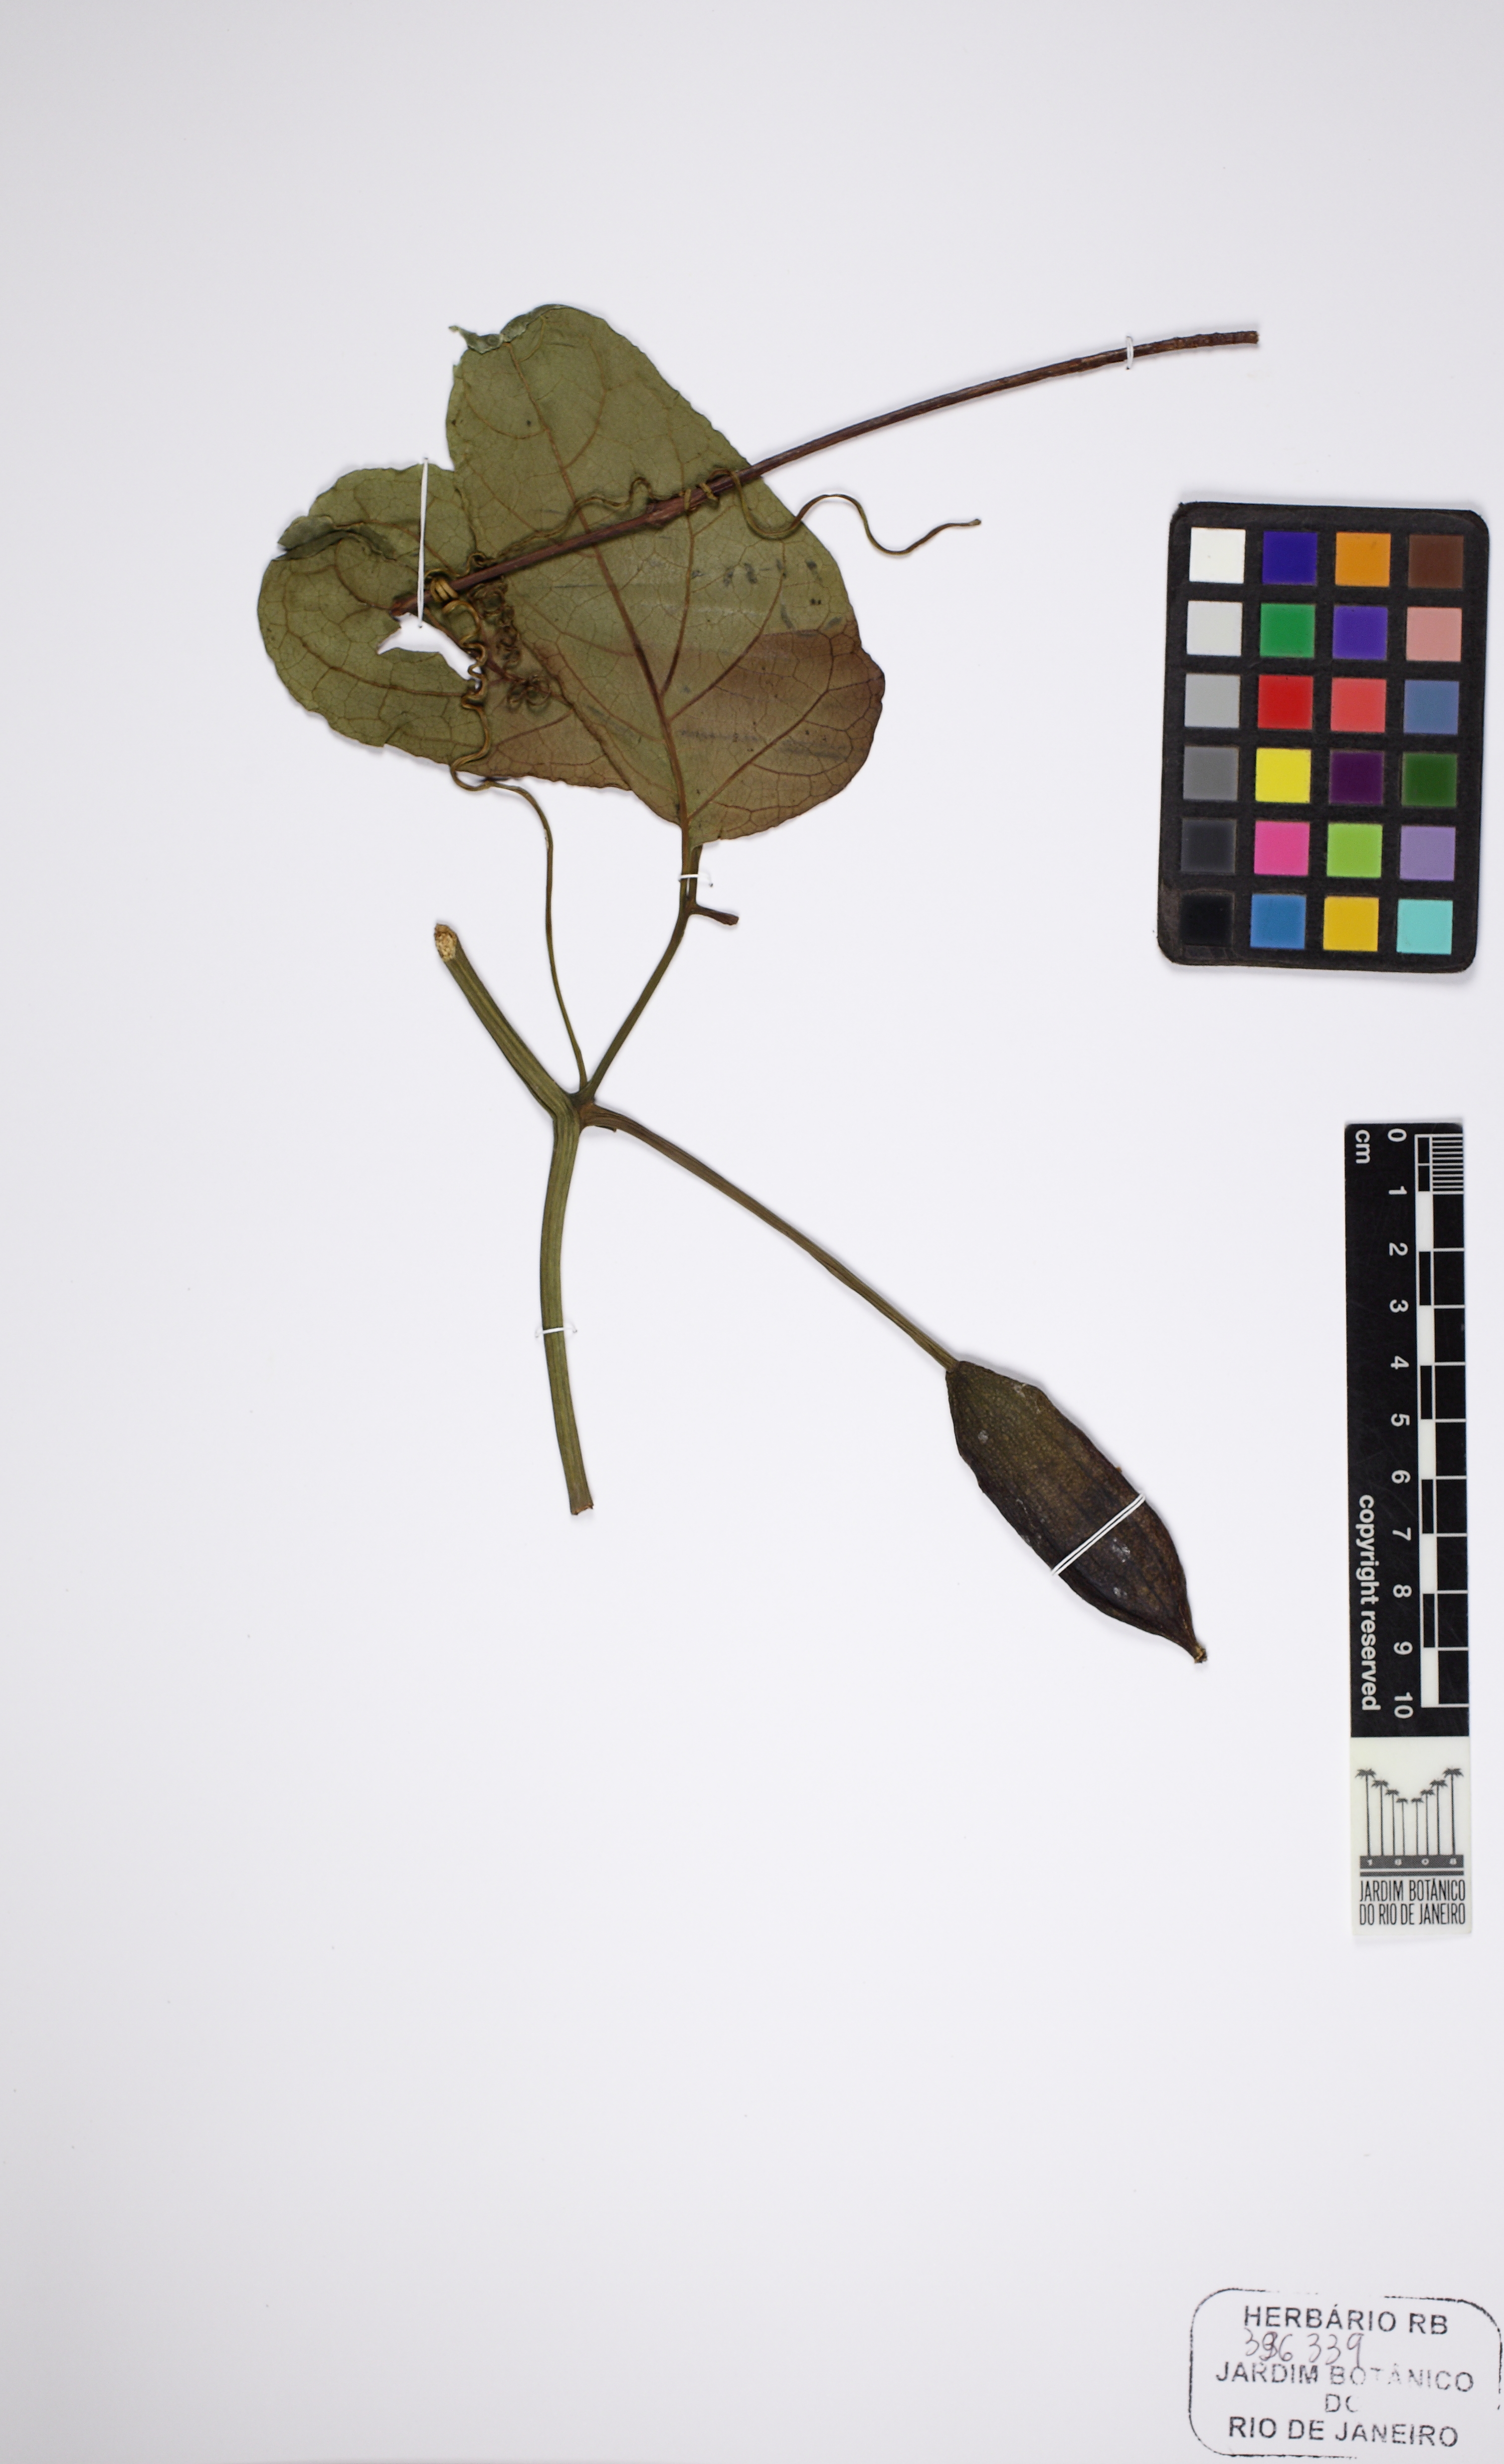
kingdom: Plantae
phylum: Tracheophyta
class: Magnoliopsida
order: Cucurbitales
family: Cucurbitaceae
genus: Psiguria
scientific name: Psiguria ternata
